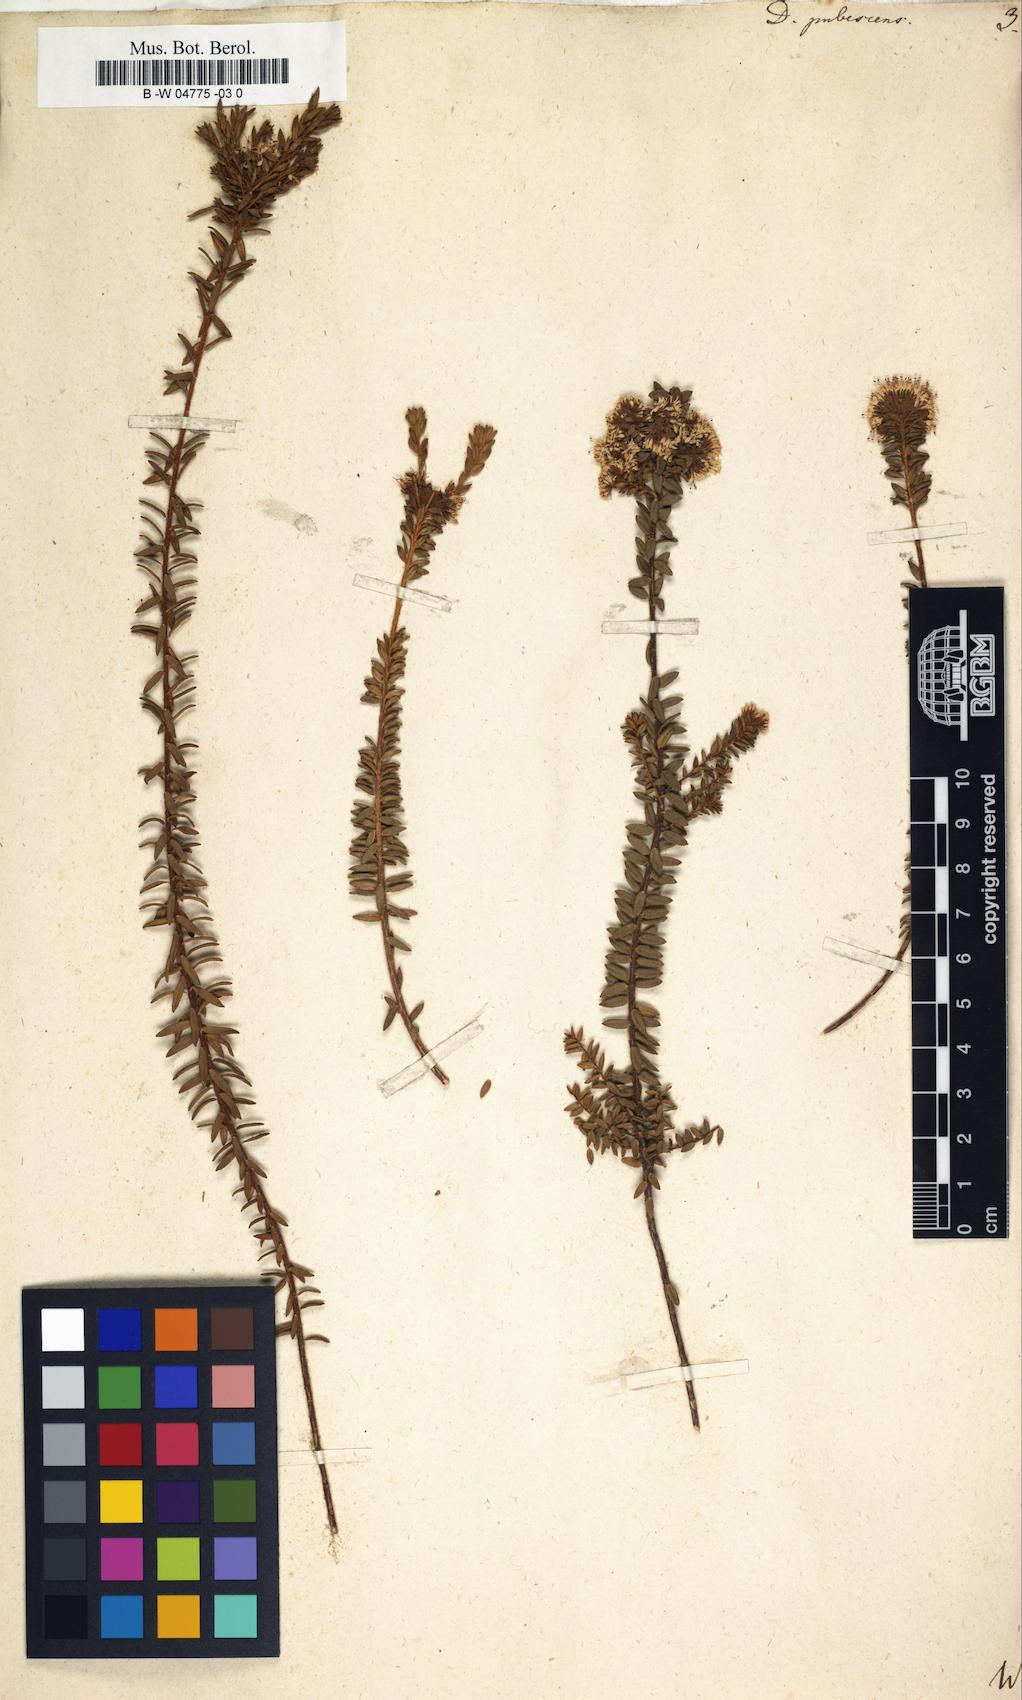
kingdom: Plantae
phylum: Tracheophyta
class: Magnoliopsida
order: Sapindales
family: Rutaceae
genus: Agathosma
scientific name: Agathosma corymbosa
